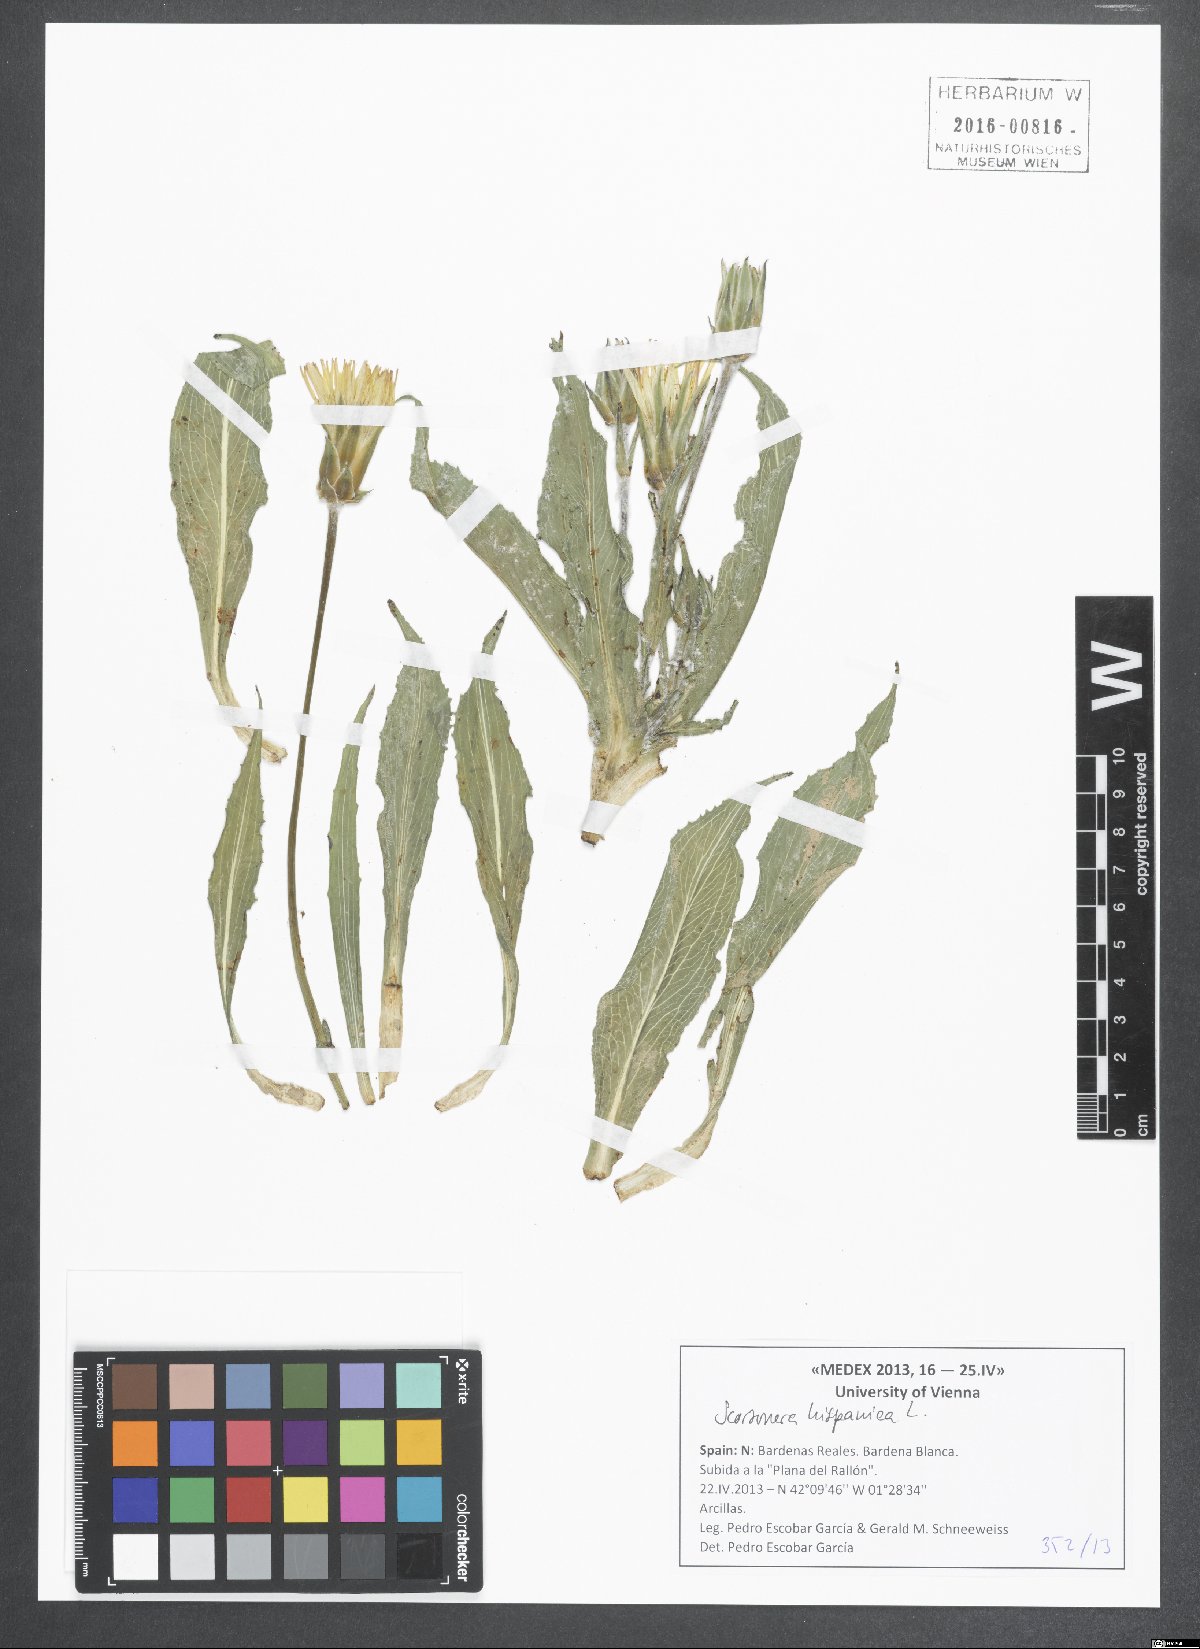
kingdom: Plantae
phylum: Tracheophyta
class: Magnoliopsida
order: Asterales
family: Asteraceae
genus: Pseudopodospermum
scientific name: Pseudopodospermum hispanicum
